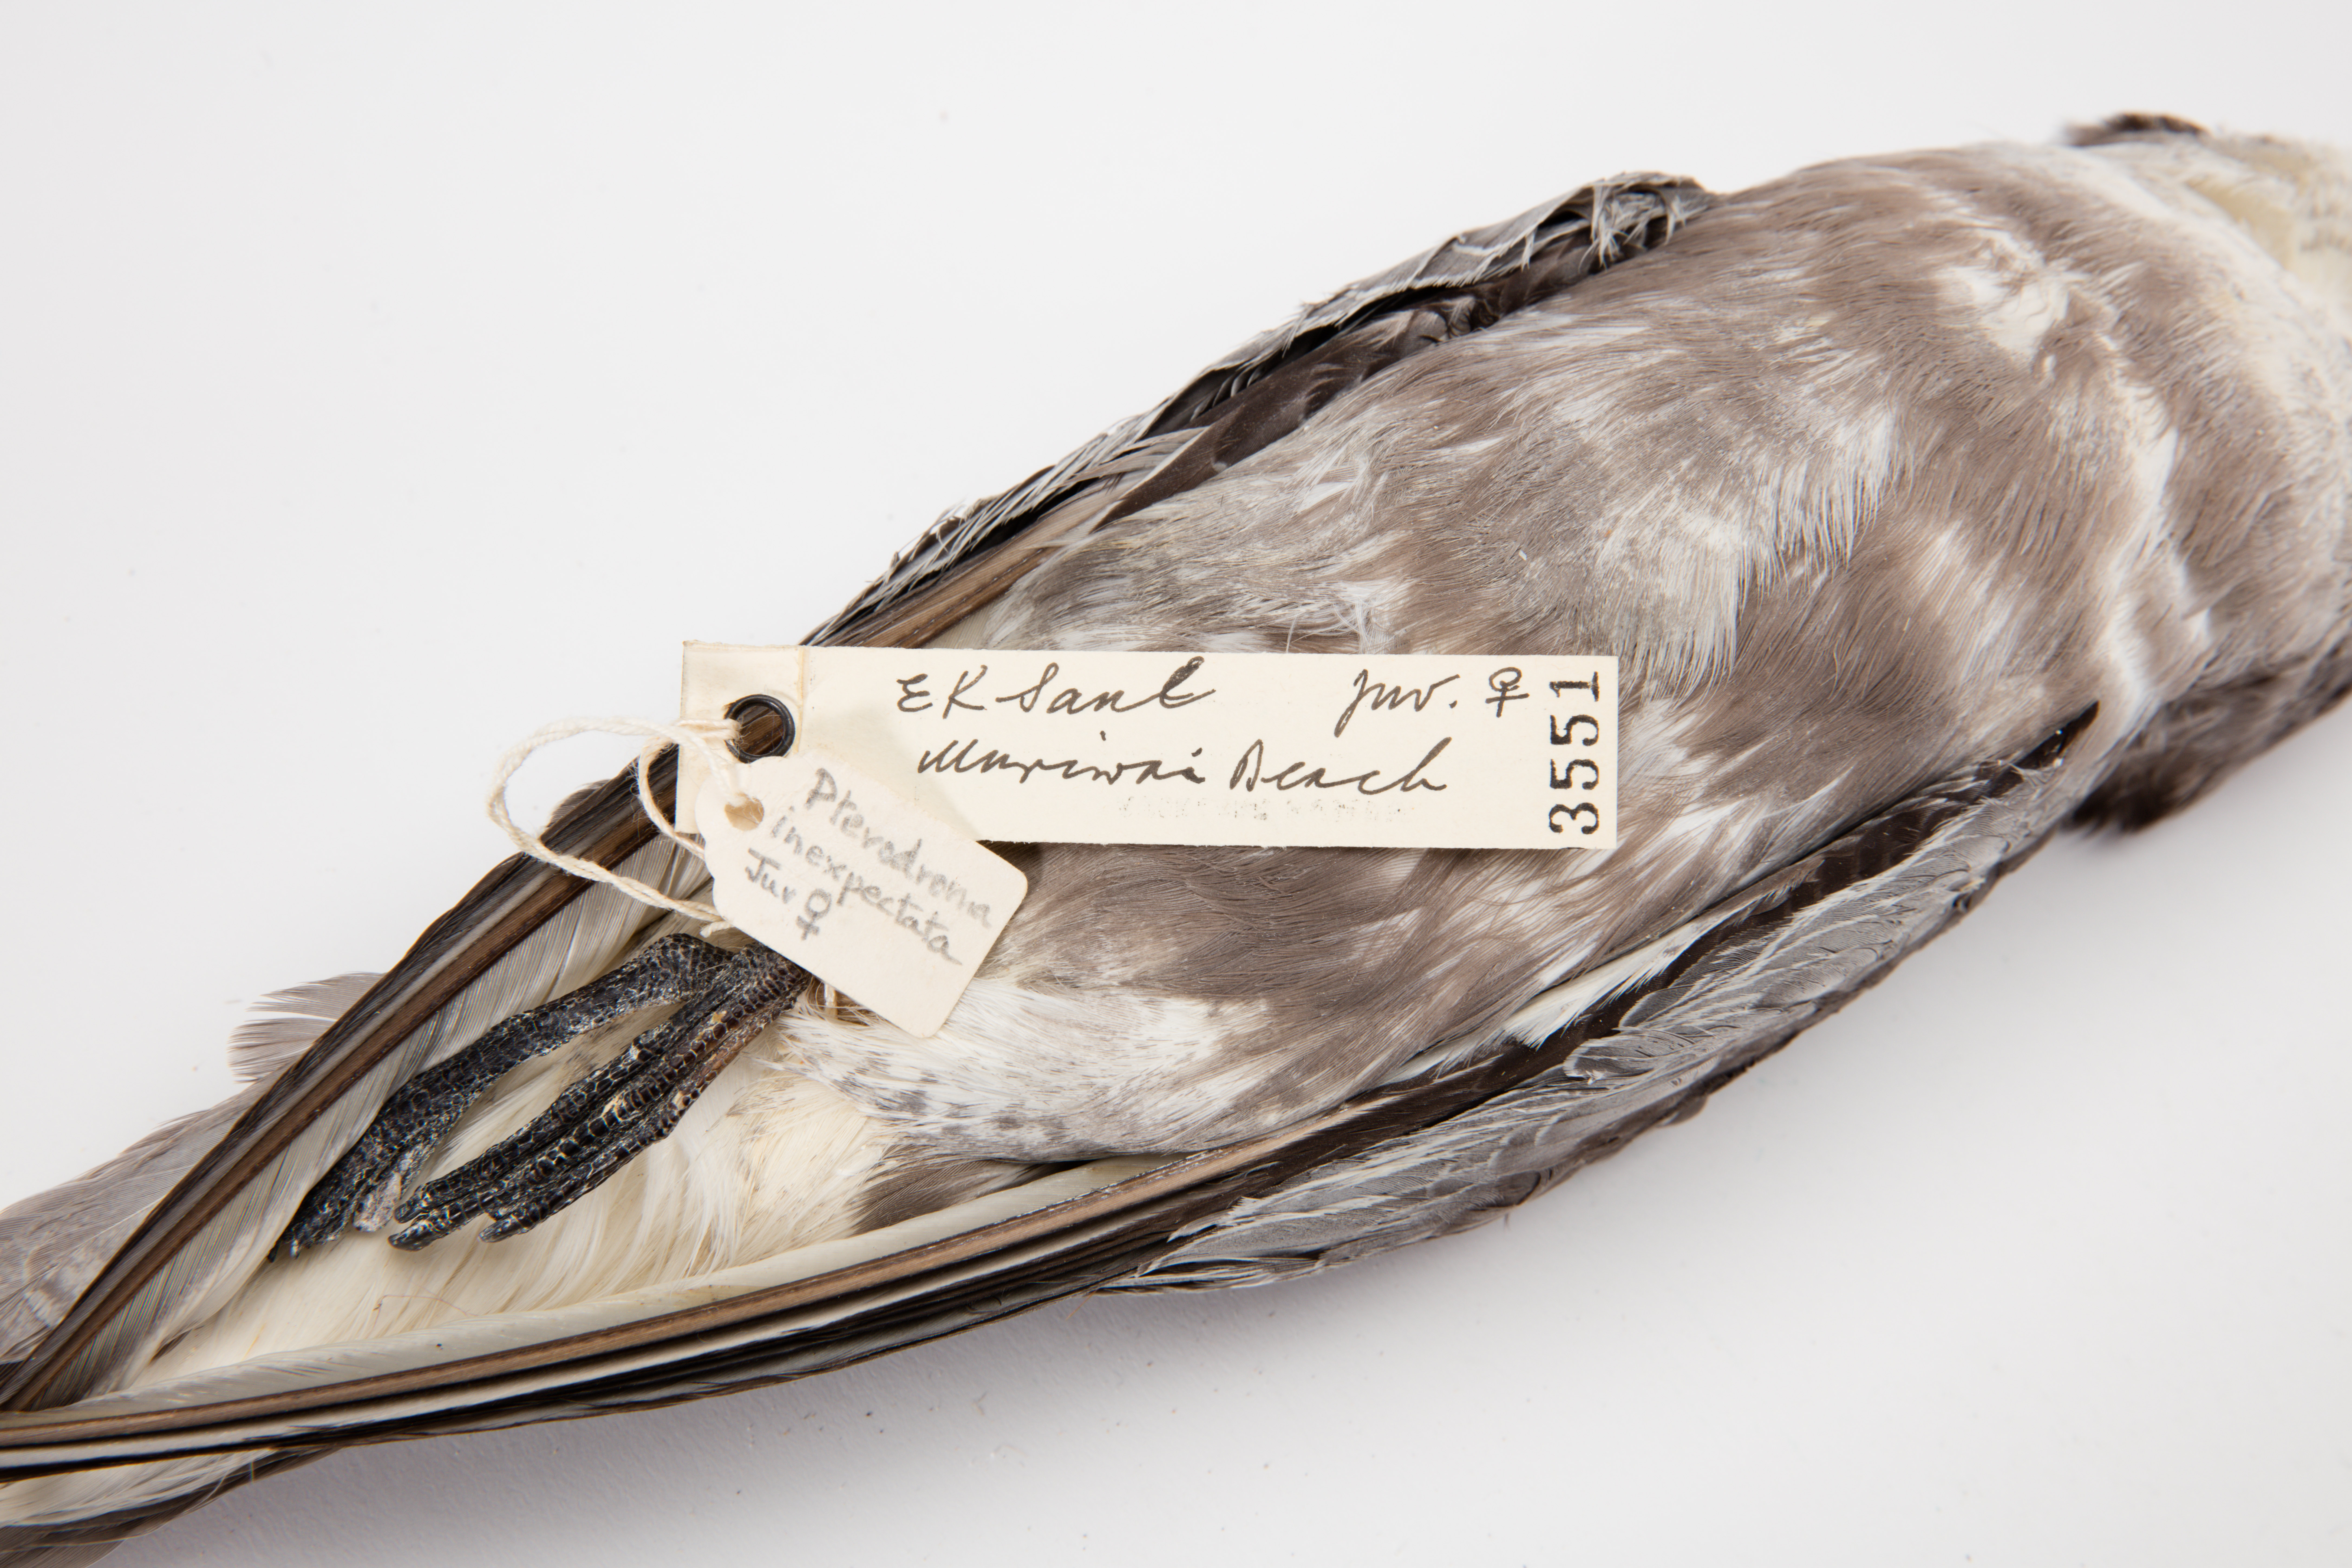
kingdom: Animalia
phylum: Chordata
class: Aves
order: Procellariiformes
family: Procellariidae
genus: Pterodroma
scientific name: Pterodroma inexpectata
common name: Mottled petrel
